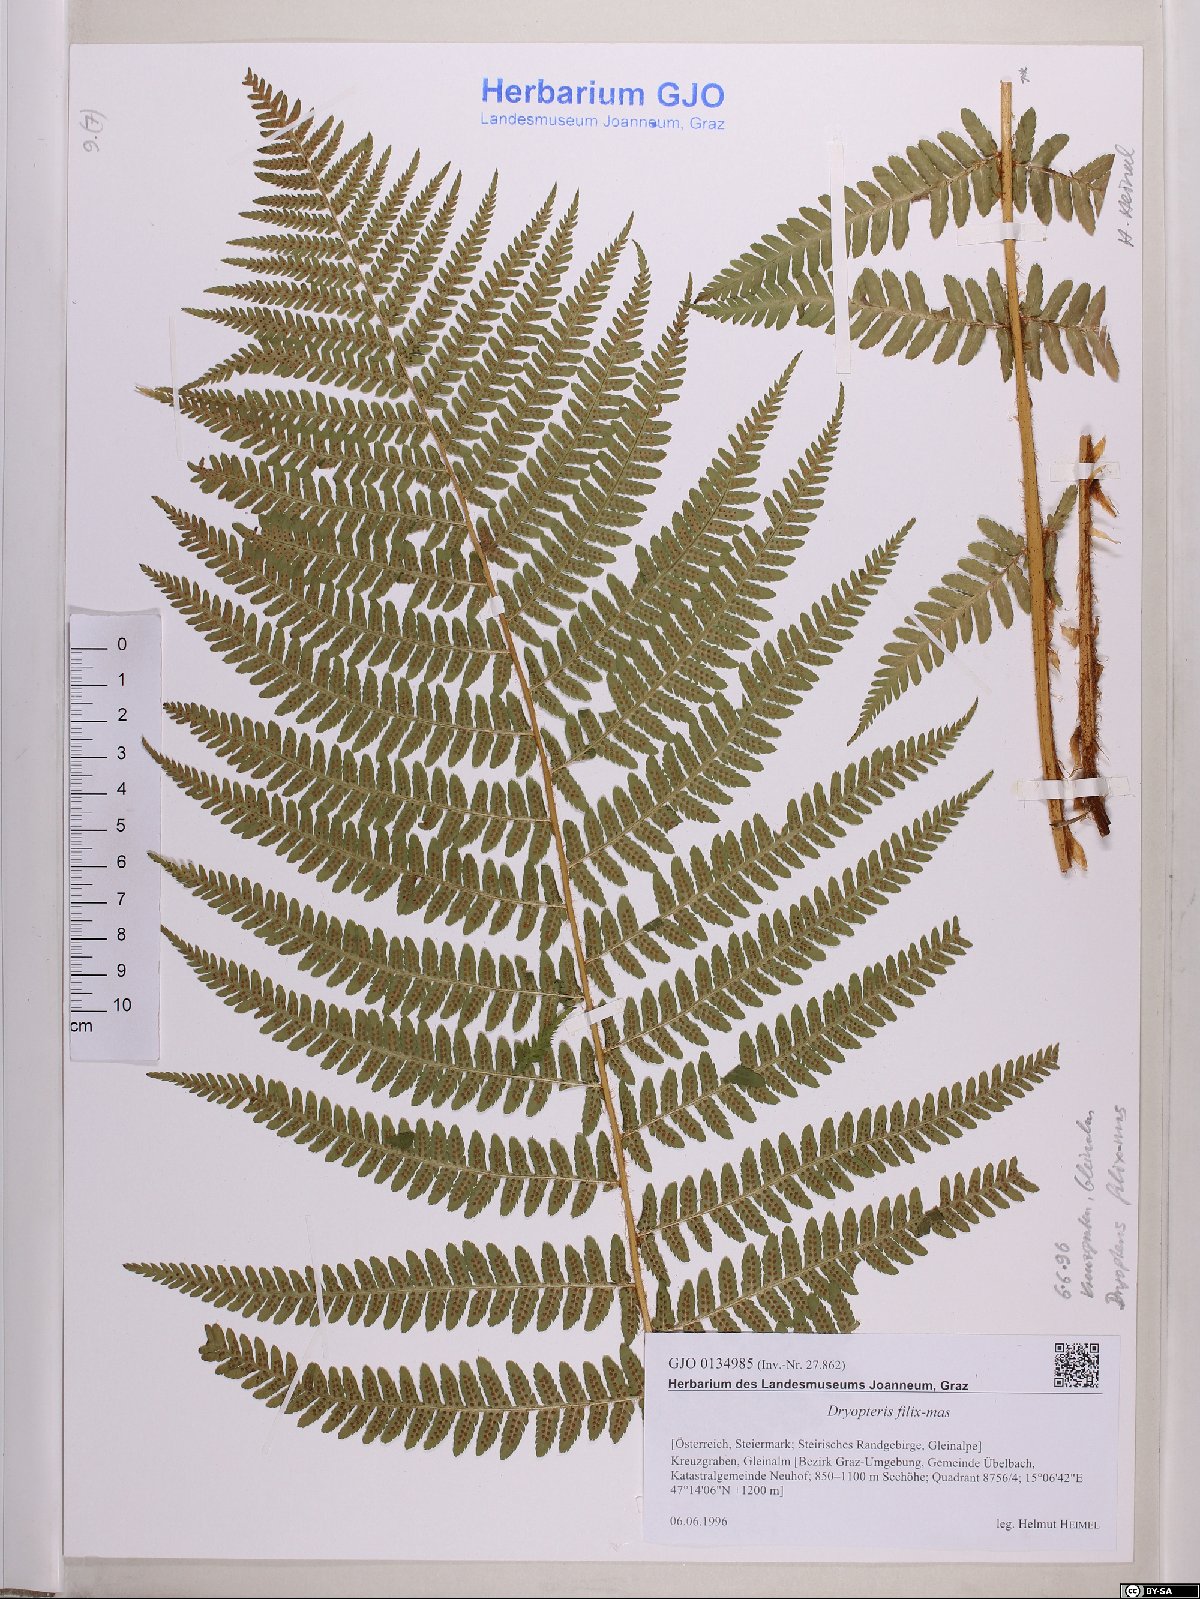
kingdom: Plantae
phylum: Tracheophyta
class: Polypodiopsida
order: Polypodiales
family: Dryopteridaceae
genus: Dryopteris
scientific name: Dryopteris filix-mas
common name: Male fern
